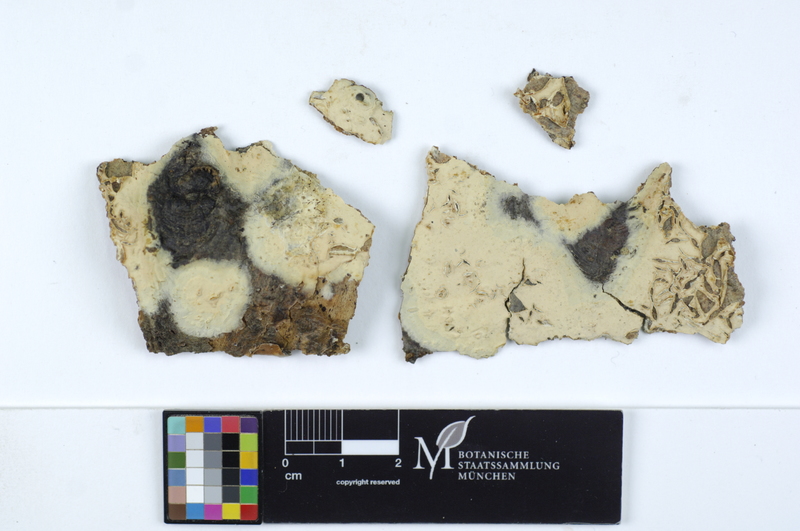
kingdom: Fungi
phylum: Basidiomycota
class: Agaricomycetes
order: Russulales
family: Stereaceae
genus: Gloeocystidiellum
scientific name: Gloeocystidiellum porosum
